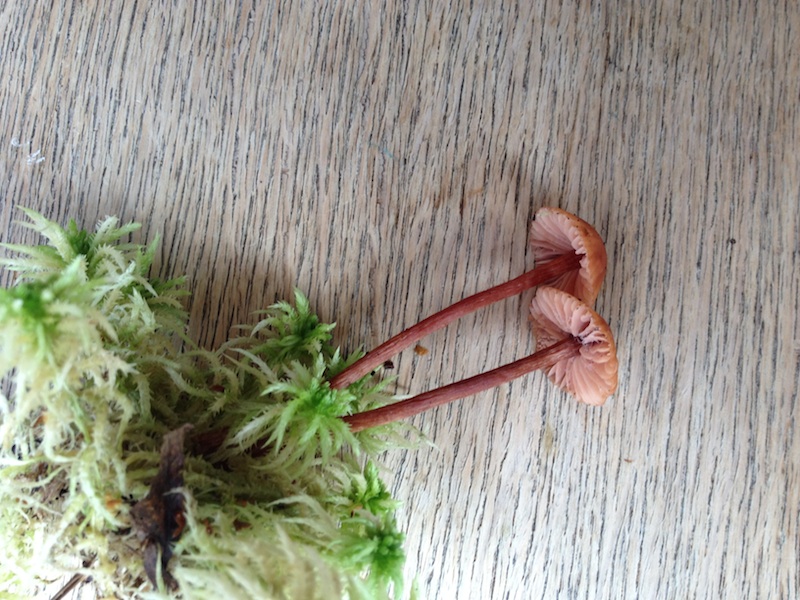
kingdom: Fungi
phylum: Basidiomycota
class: Agaricomycetes
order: Agaricales
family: Hydnangiaceae
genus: Laccaria
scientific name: Laccaria laccata
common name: rød ametysthat
